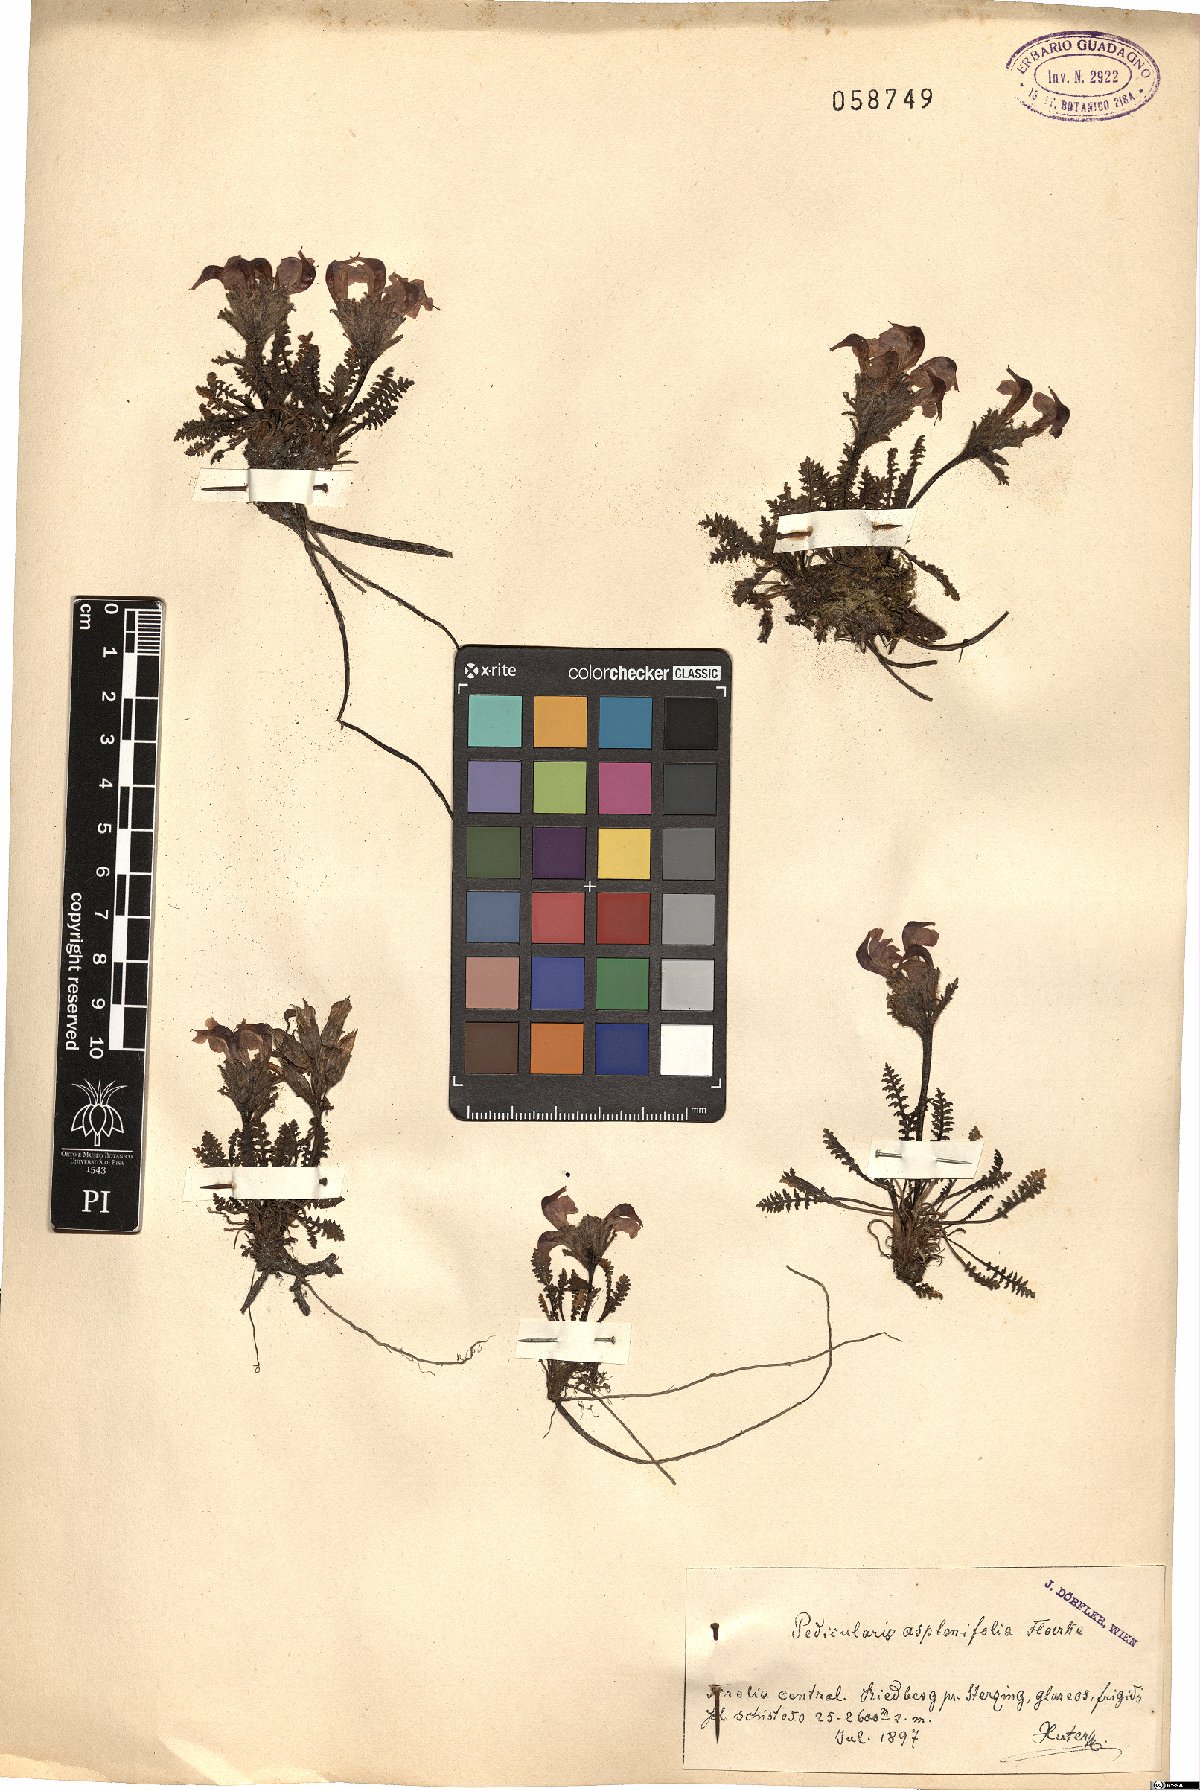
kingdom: Plantae
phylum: Tracheophyta
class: Magnoliopsida
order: Lamiales
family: Orobanchaceae
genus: Pedicularis
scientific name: Pedicularis asplenifolia
